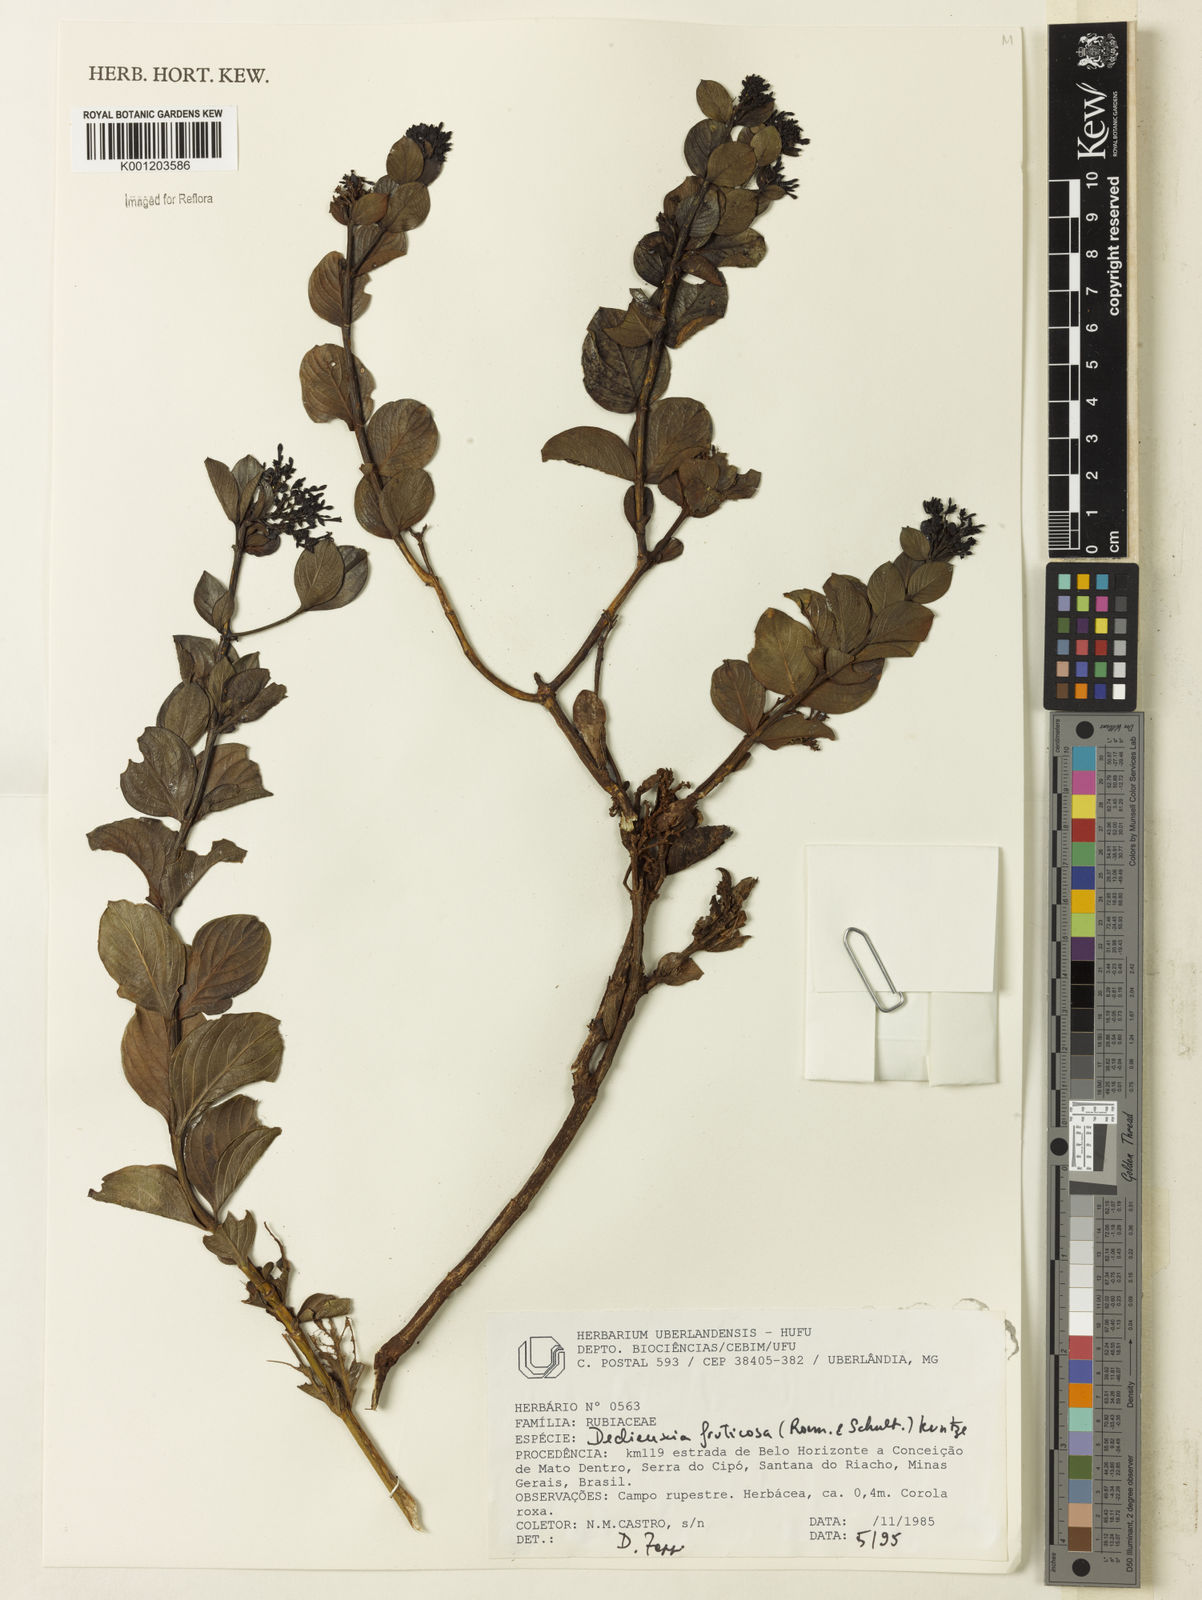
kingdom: Plantae
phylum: Tracheophyta
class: Magnoliopsida
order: Gentianales
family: Rubiaceae
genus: Declieuxia
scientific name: Declieuxia fruticosa
